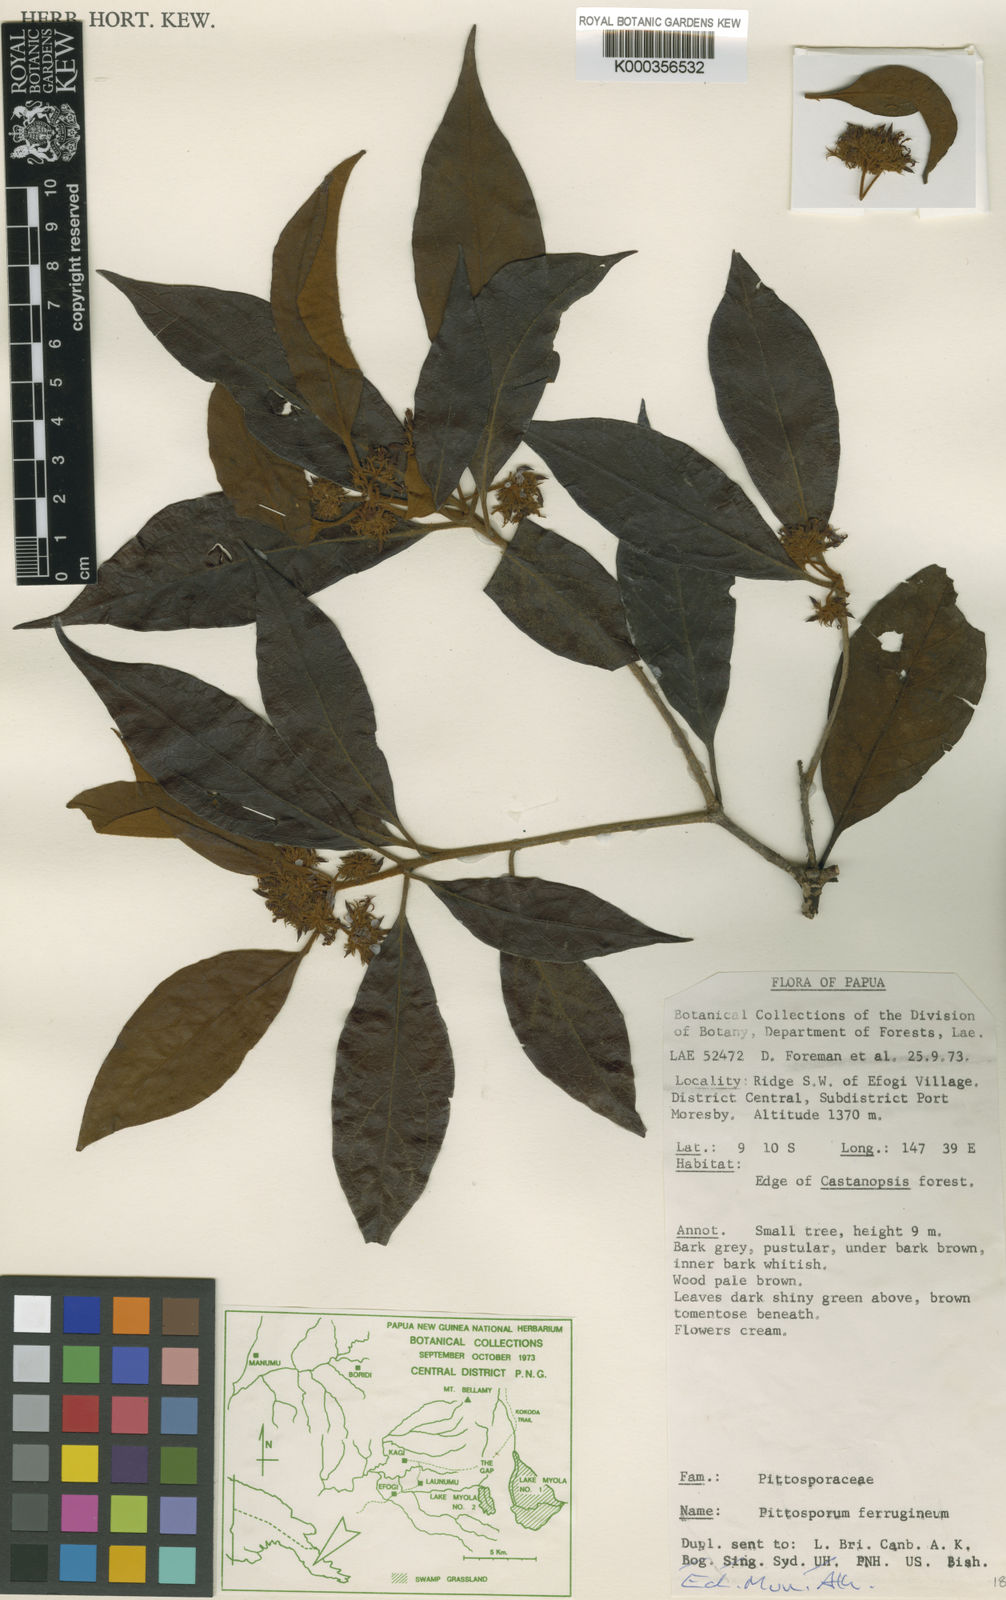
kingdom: Plantae
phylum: Tracheophyta
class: Magnoliopsida
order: Apiales
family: Pittosporaceae
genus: Pittosporum
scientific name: Pittosporum ferrugineum
